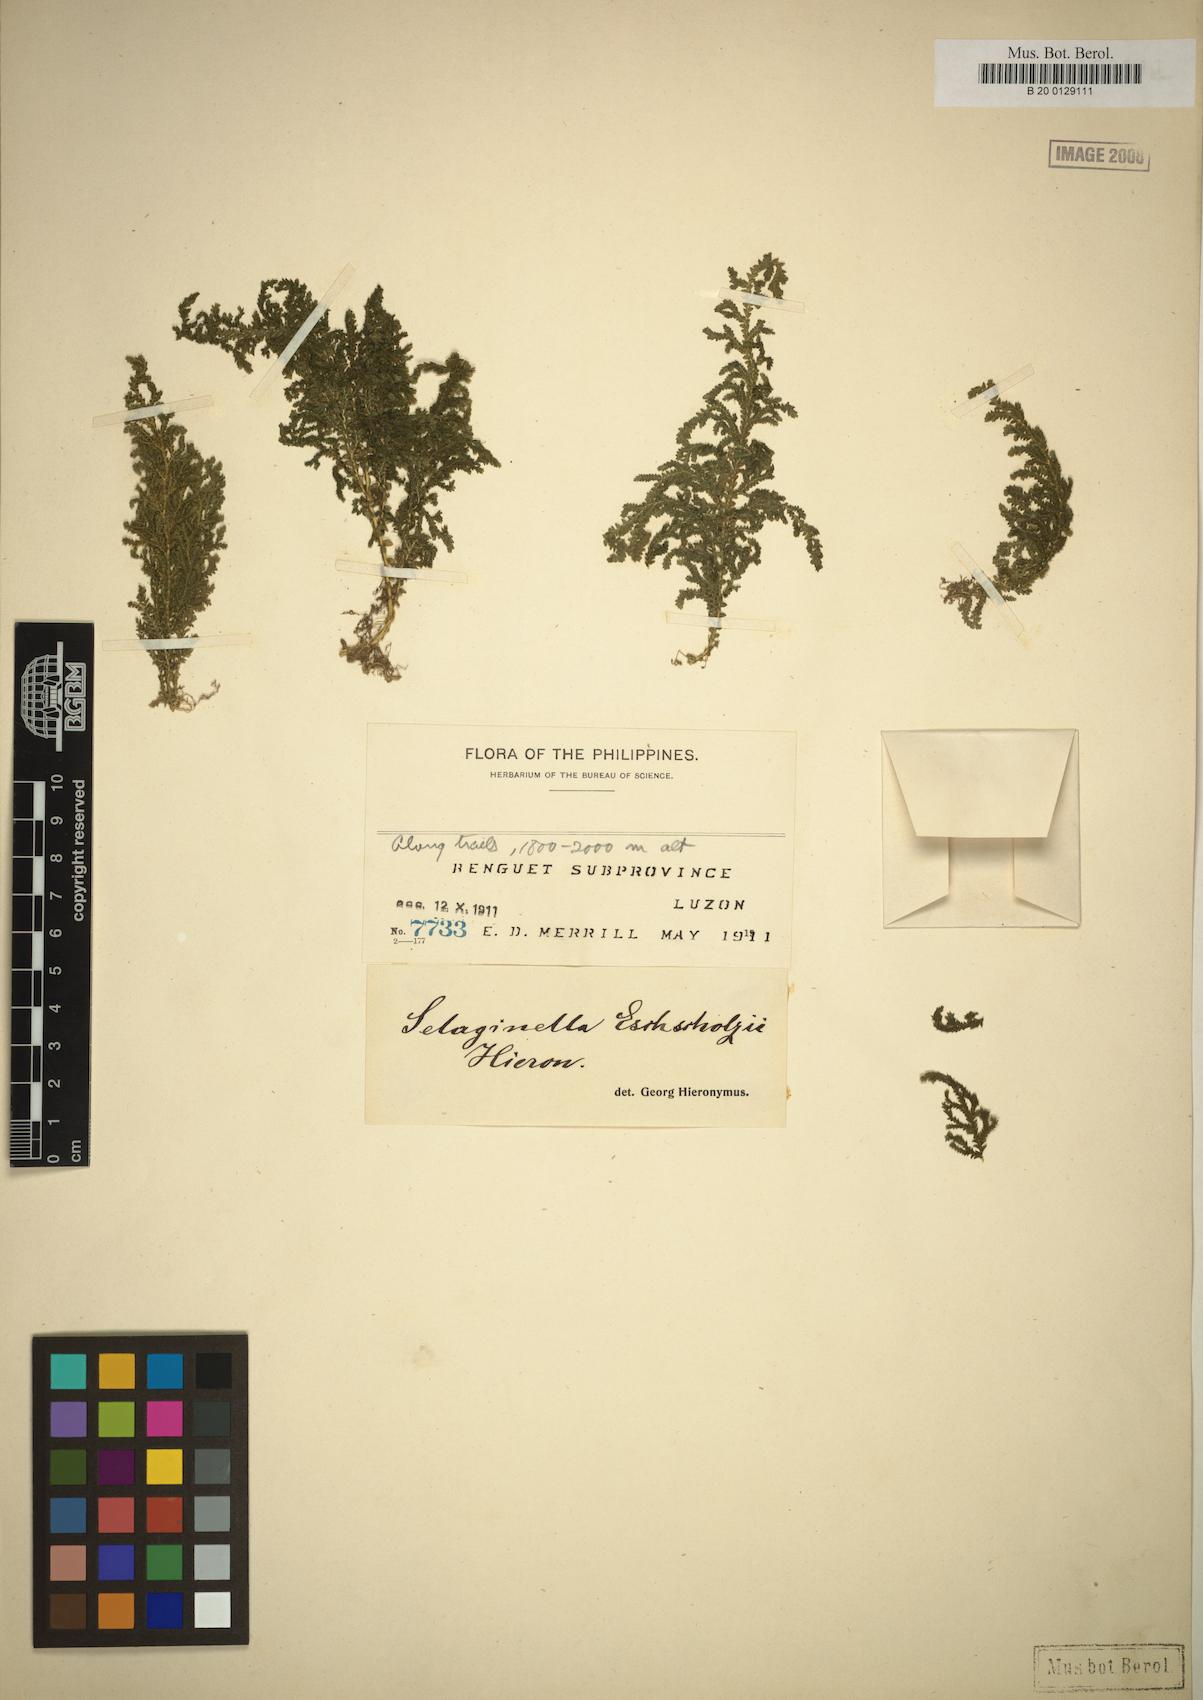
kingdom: Plantae
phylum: Tracheophyta
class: Lycopodiopsida
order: Selaginellales
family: Selaginellaceae
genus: Selaginella
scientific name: Selaginella eschscholzii
